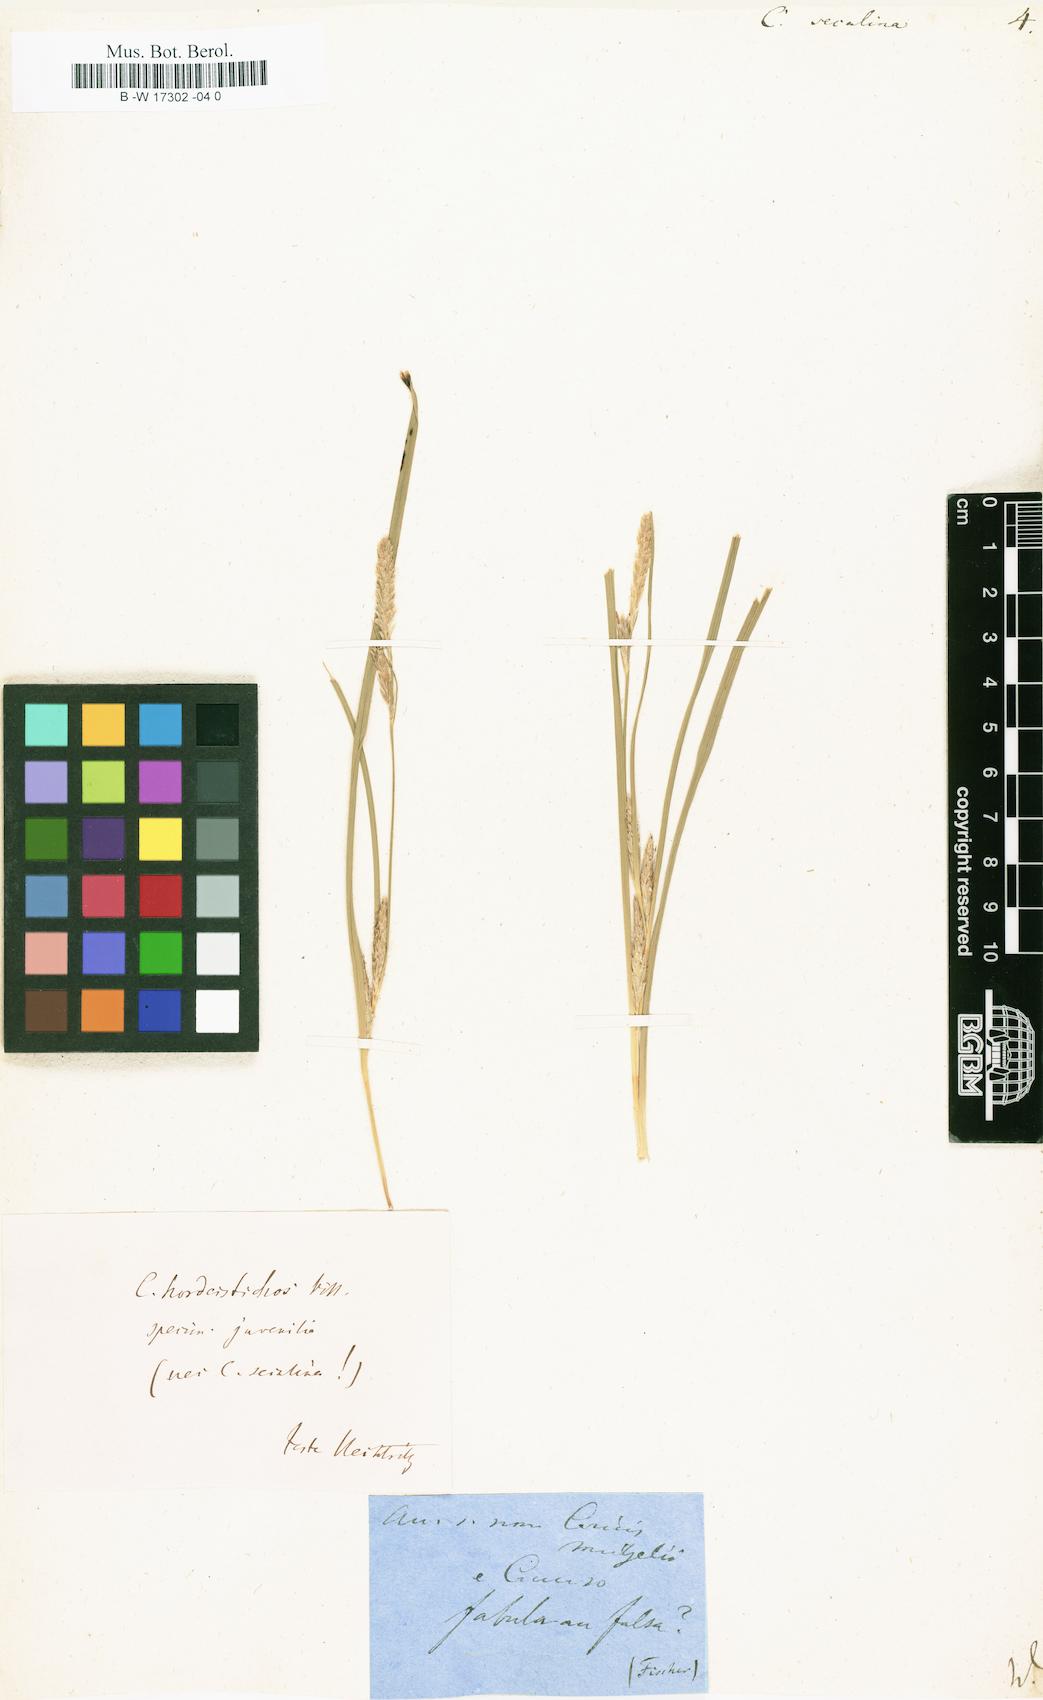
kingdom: Plantae
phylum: Tracheophyta
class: Liliopsida
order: Poales
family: Cyperaceae
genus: Carex
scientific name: Carex secalina
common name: Rye sedge
